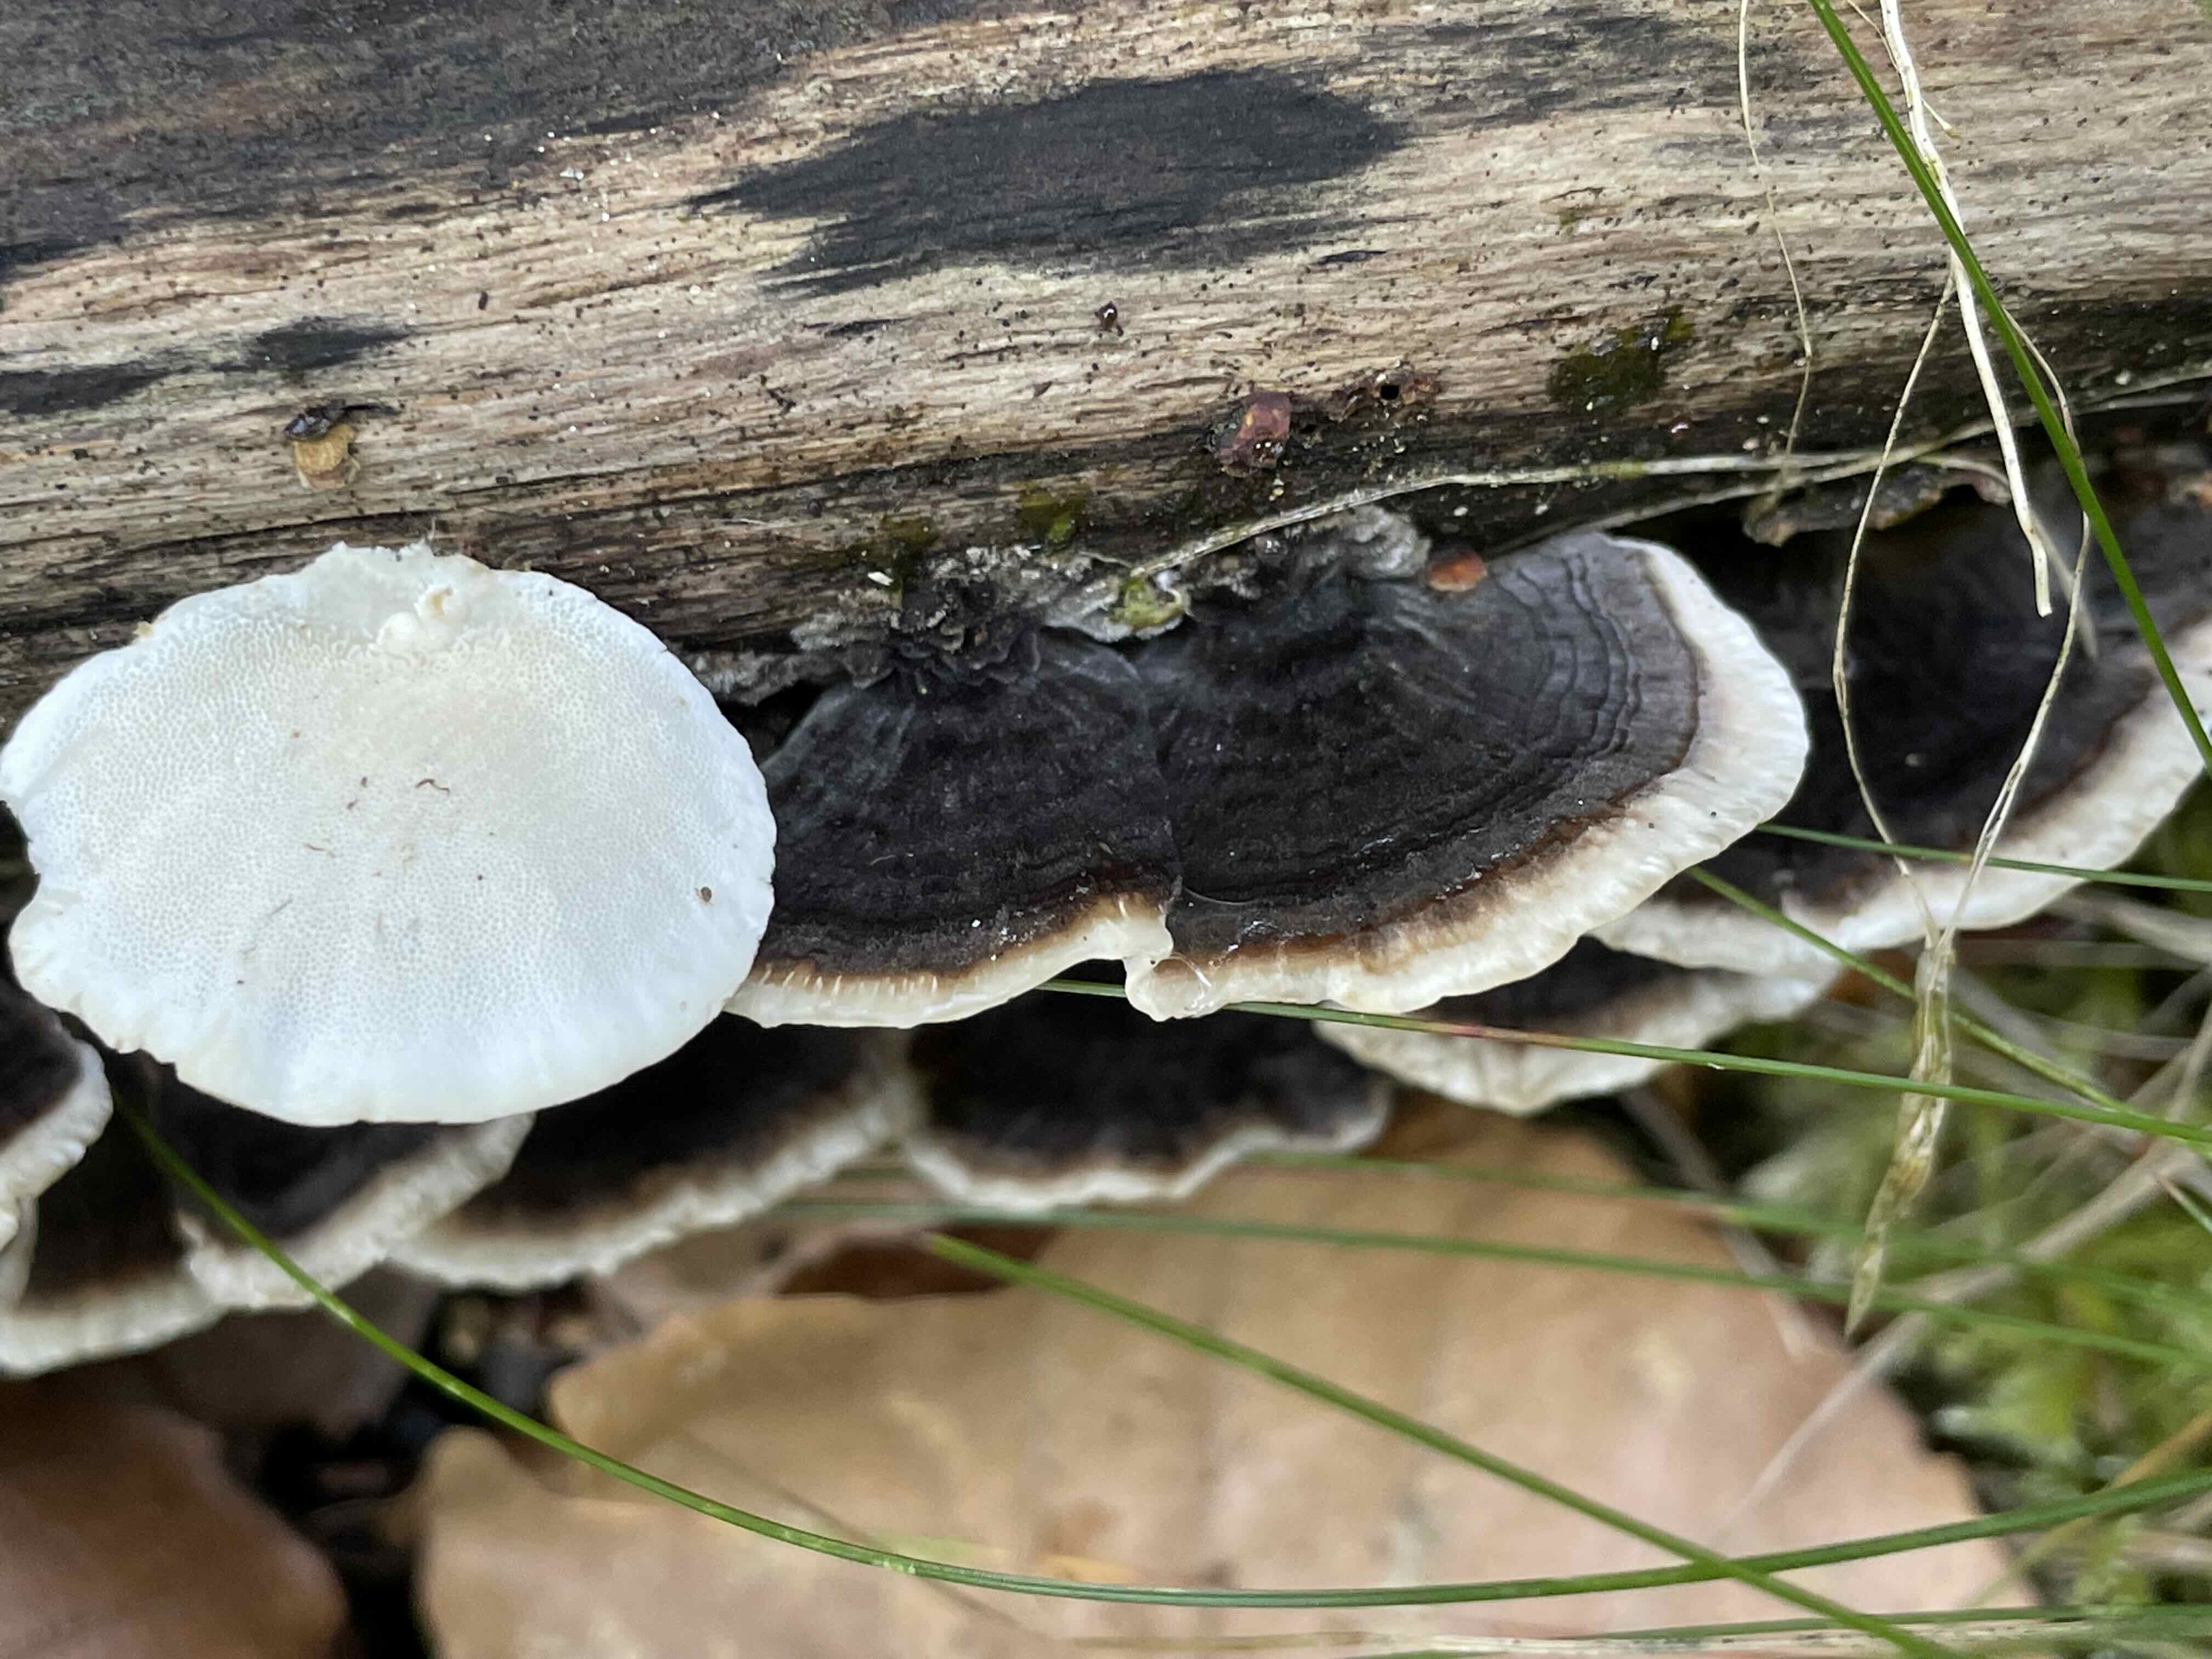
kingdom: Fungi
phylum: Basidiomycota
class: Agaricomycetes
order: Polyporales
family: Polyporaceae
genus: Trametes
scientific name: Trametes versicolor
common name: broget læderporesvamp
